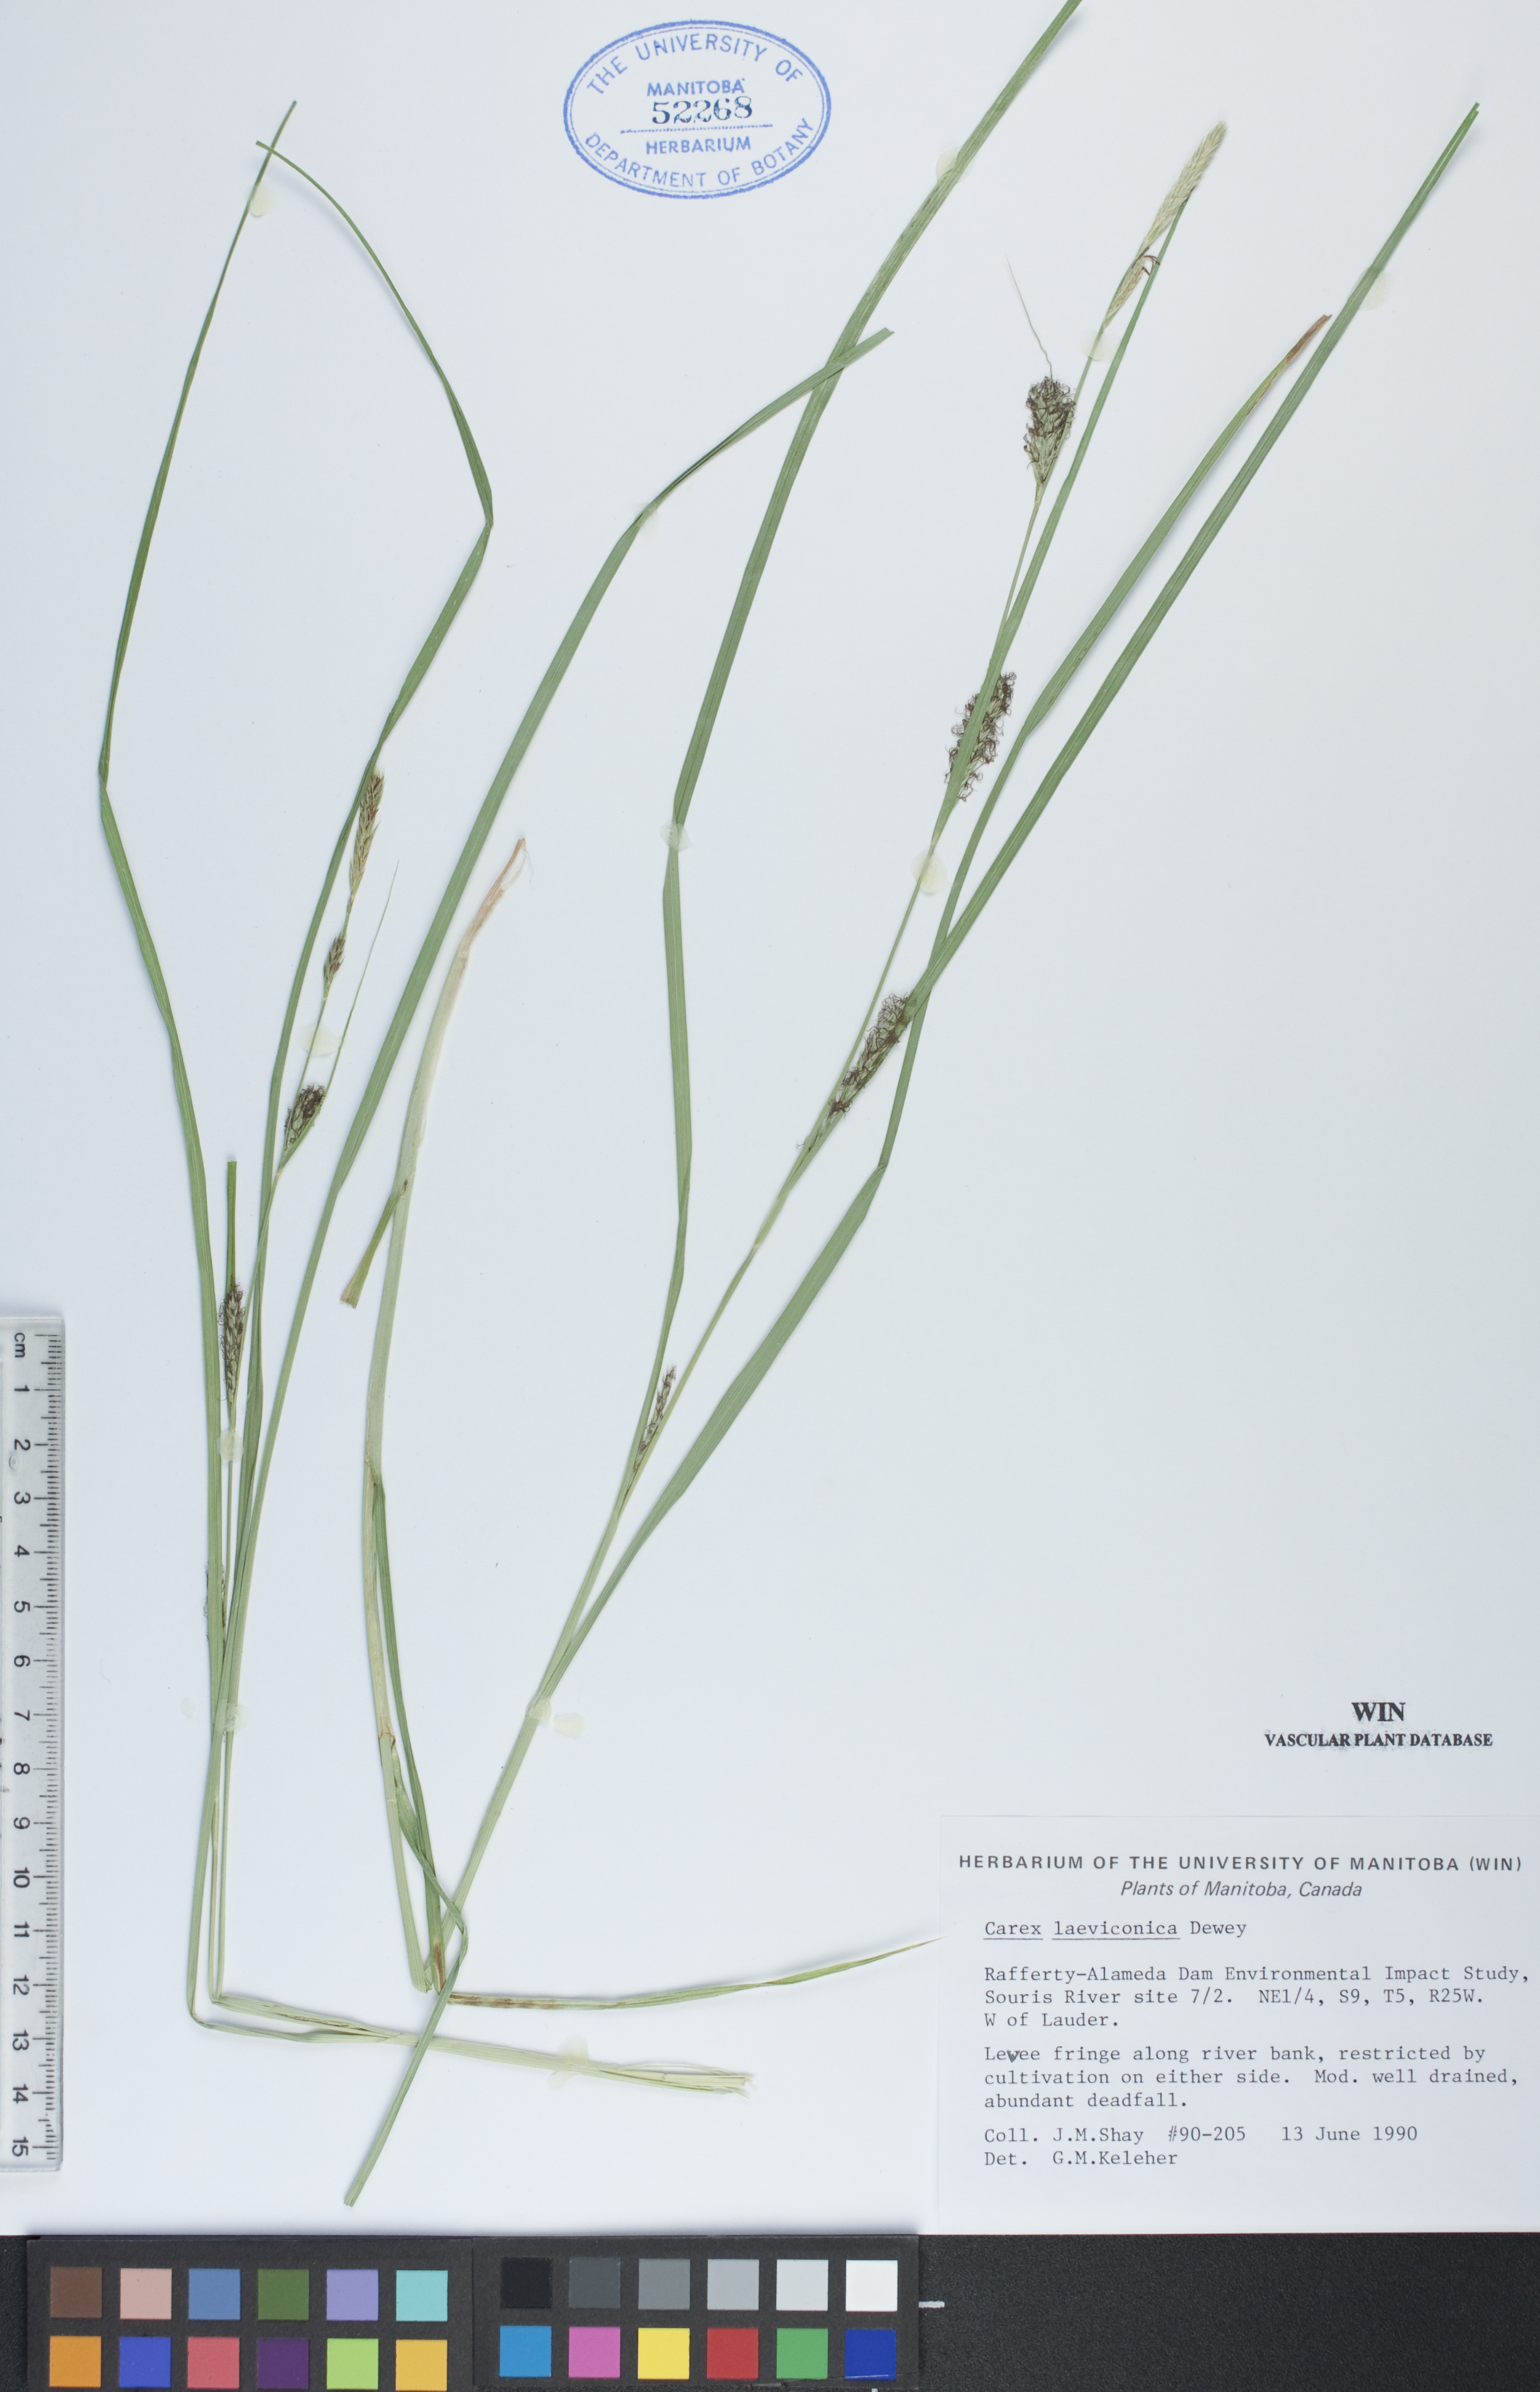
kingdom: Plantae
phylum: Tracheophyta
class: Liliopsida
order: Poales
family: Cyperaceae
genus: Carex
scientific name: Carex laeviconica
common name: Plains slough sedge
